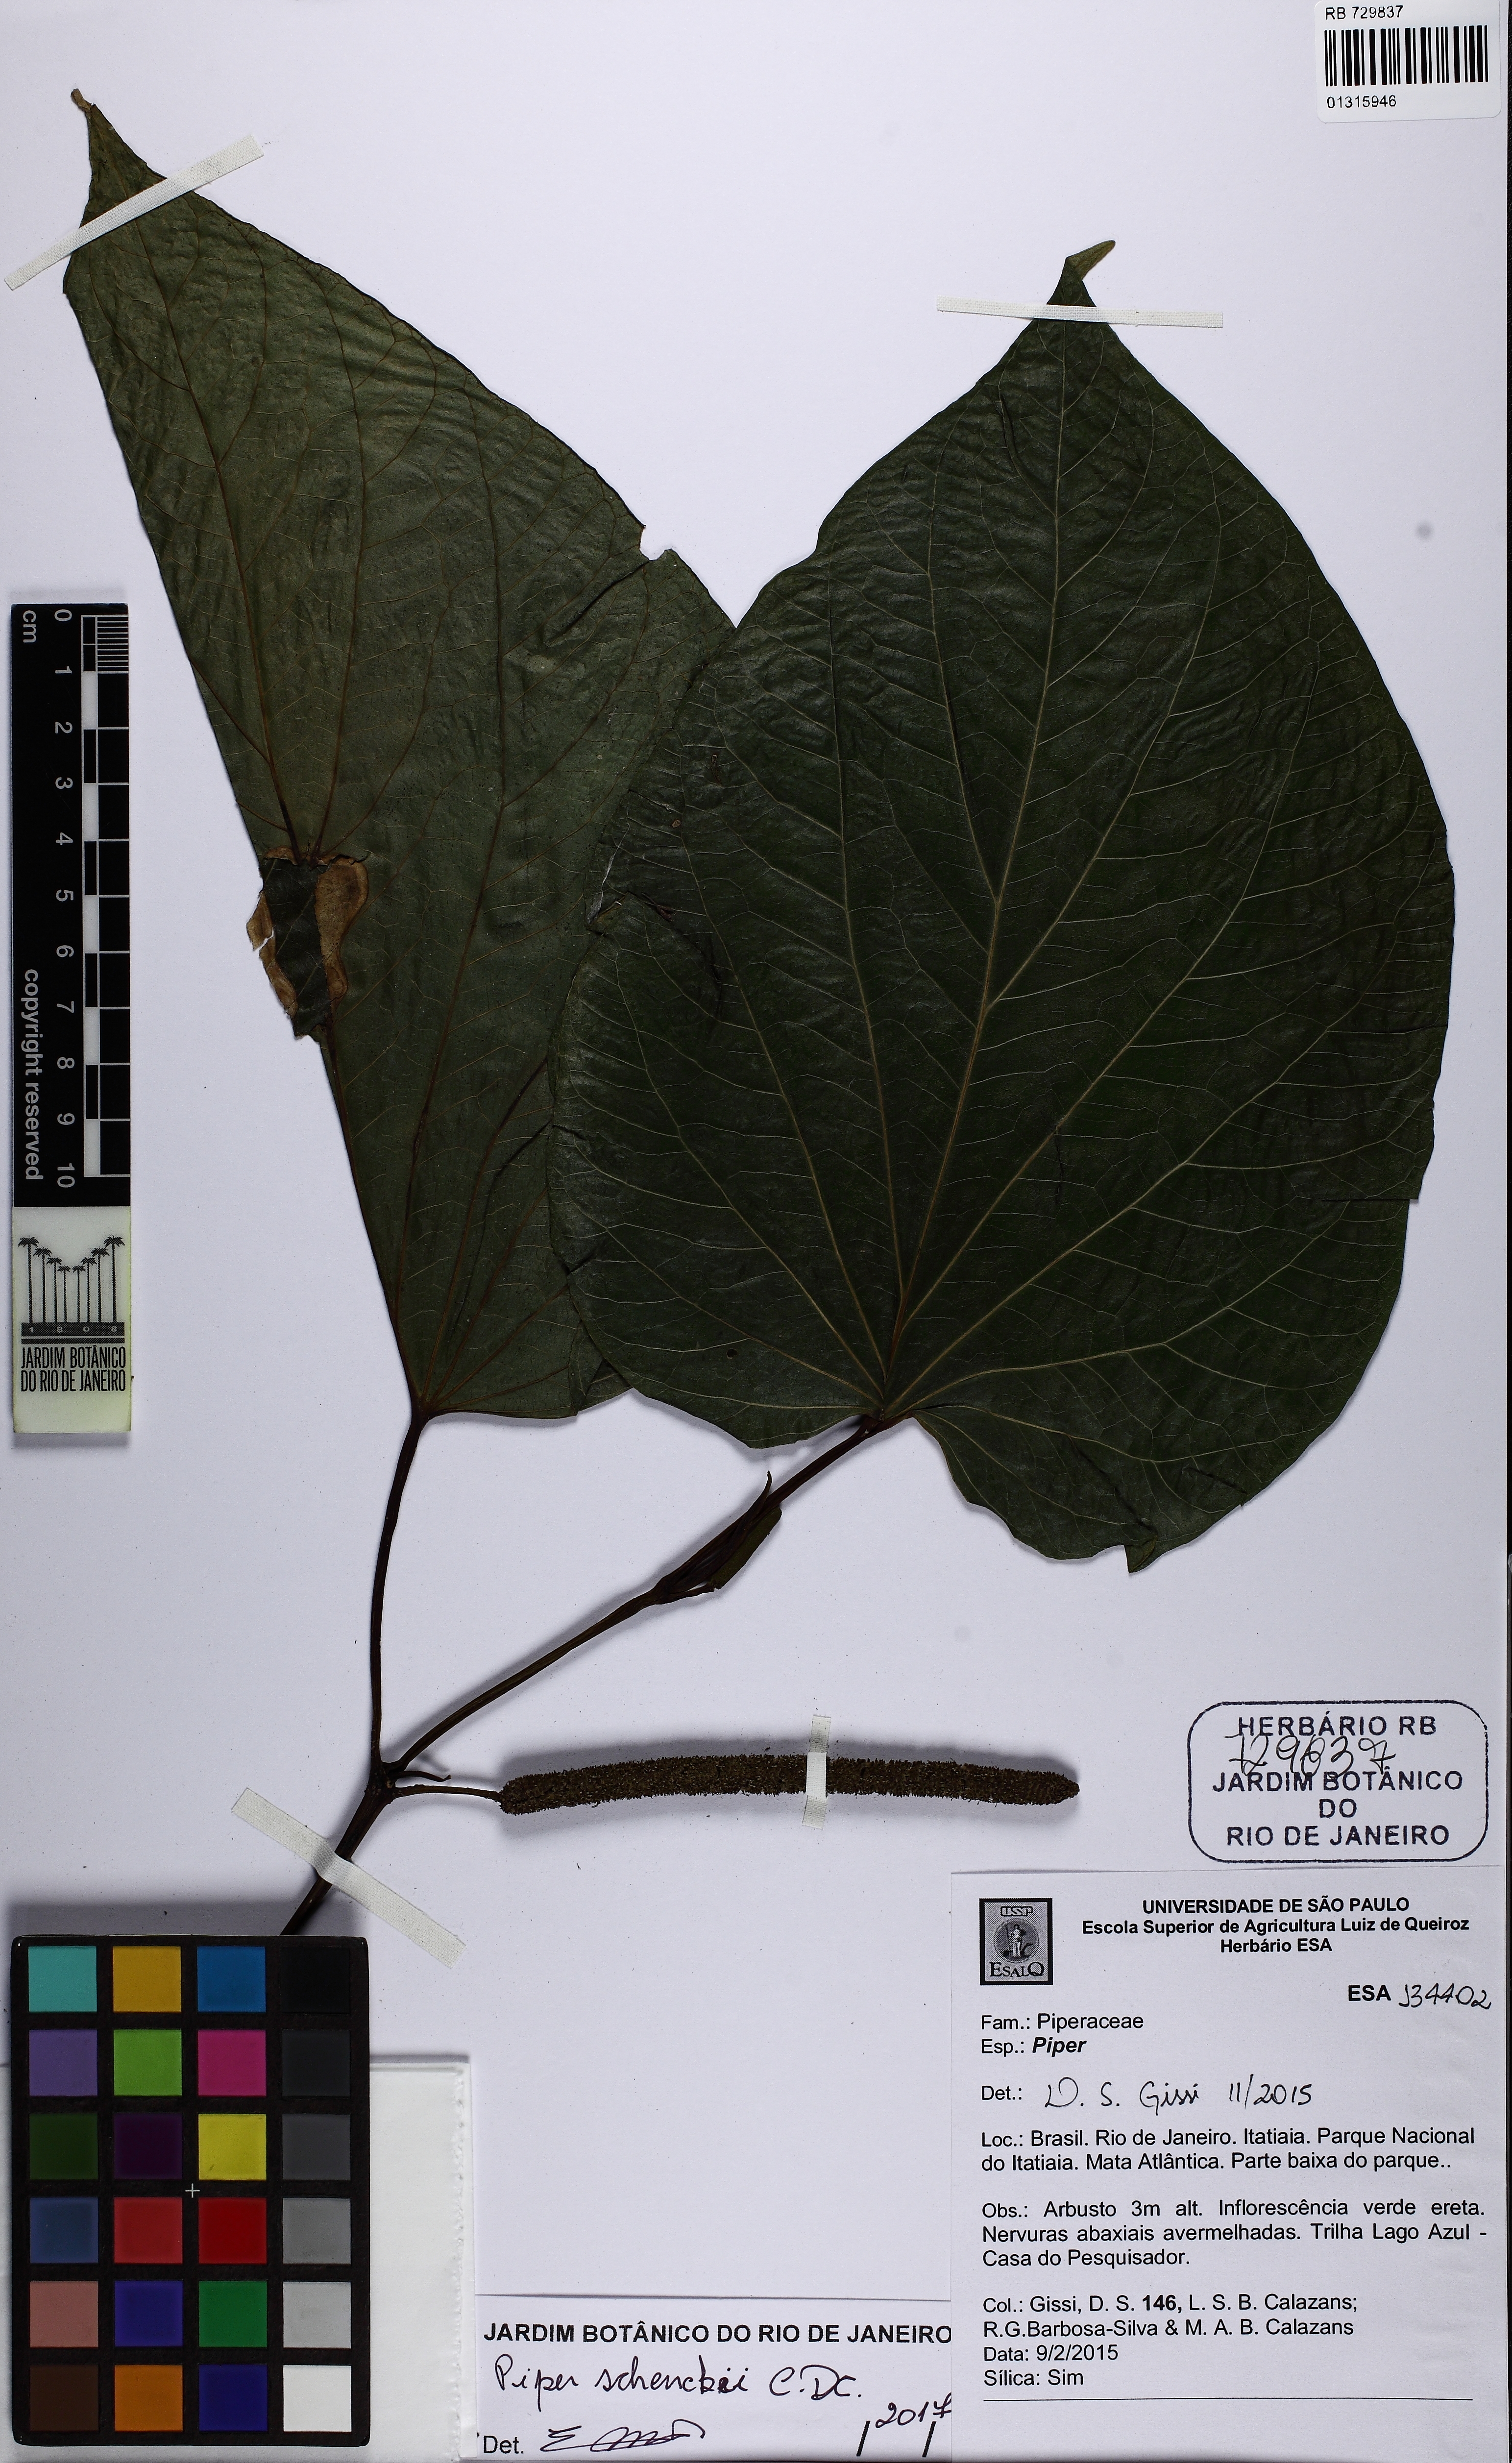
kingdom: Plantae
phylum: Tracheophyta
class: Magnoliopsida
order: Piperales
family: Piperaceae
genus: Piper
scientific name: Piper schenckii
